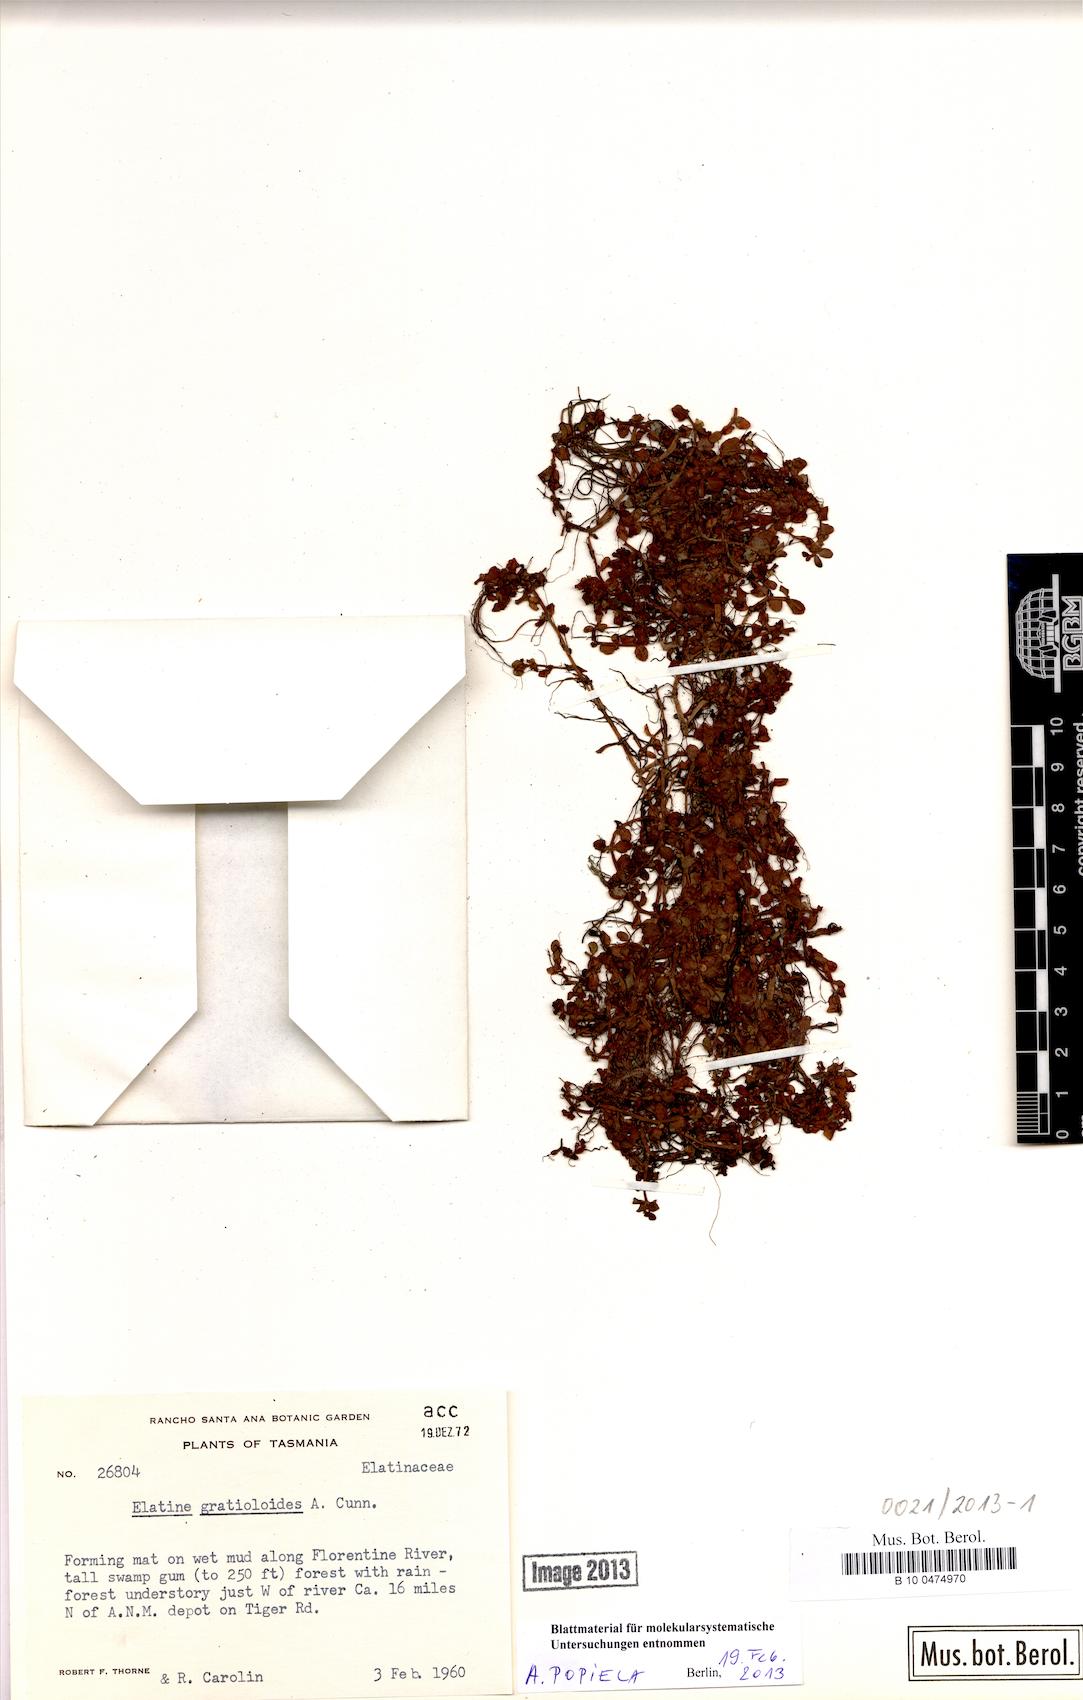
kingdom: Plantae
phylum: Tracheophyta
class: Magnoliopsida
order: Malpighiales
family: Elatinaceae
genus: Elatine
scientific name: Elatine gratioloides
